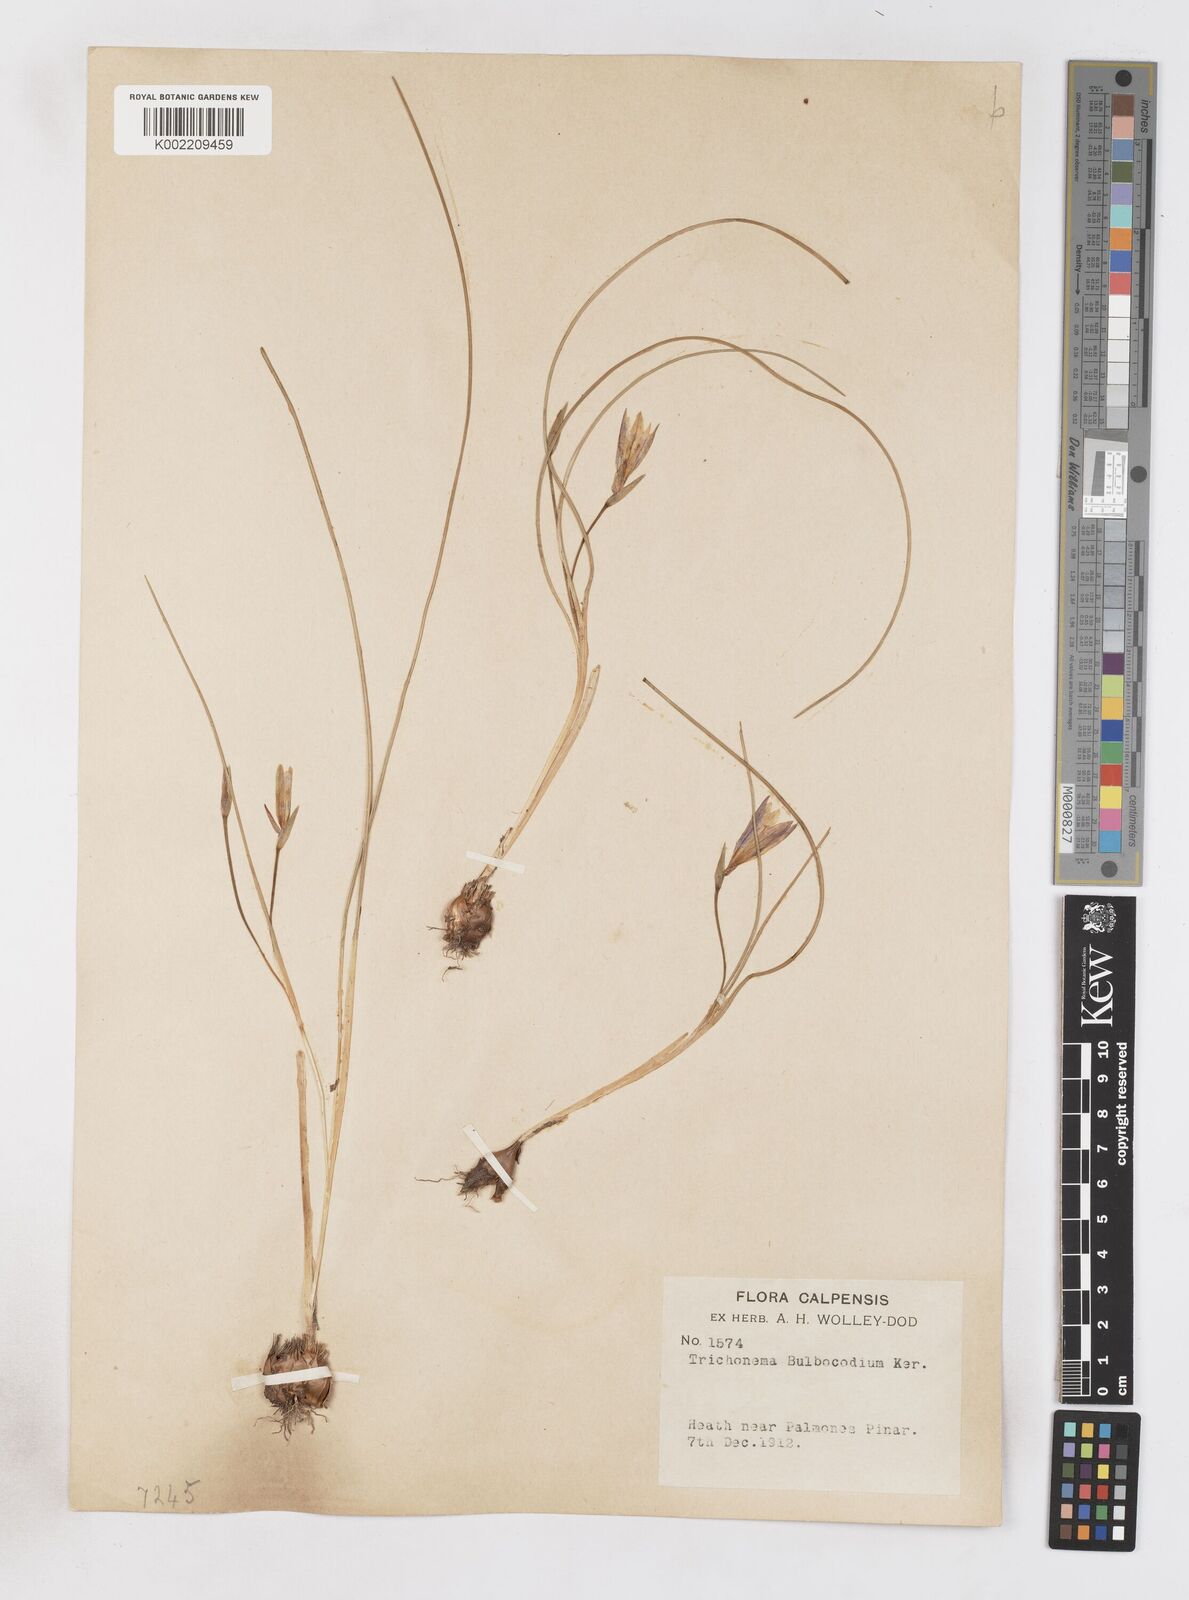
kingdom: Plantae
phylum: Tracheophyta
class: Liliopsida
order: Asparagales
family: Iridaceae
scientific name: Iridaceae
